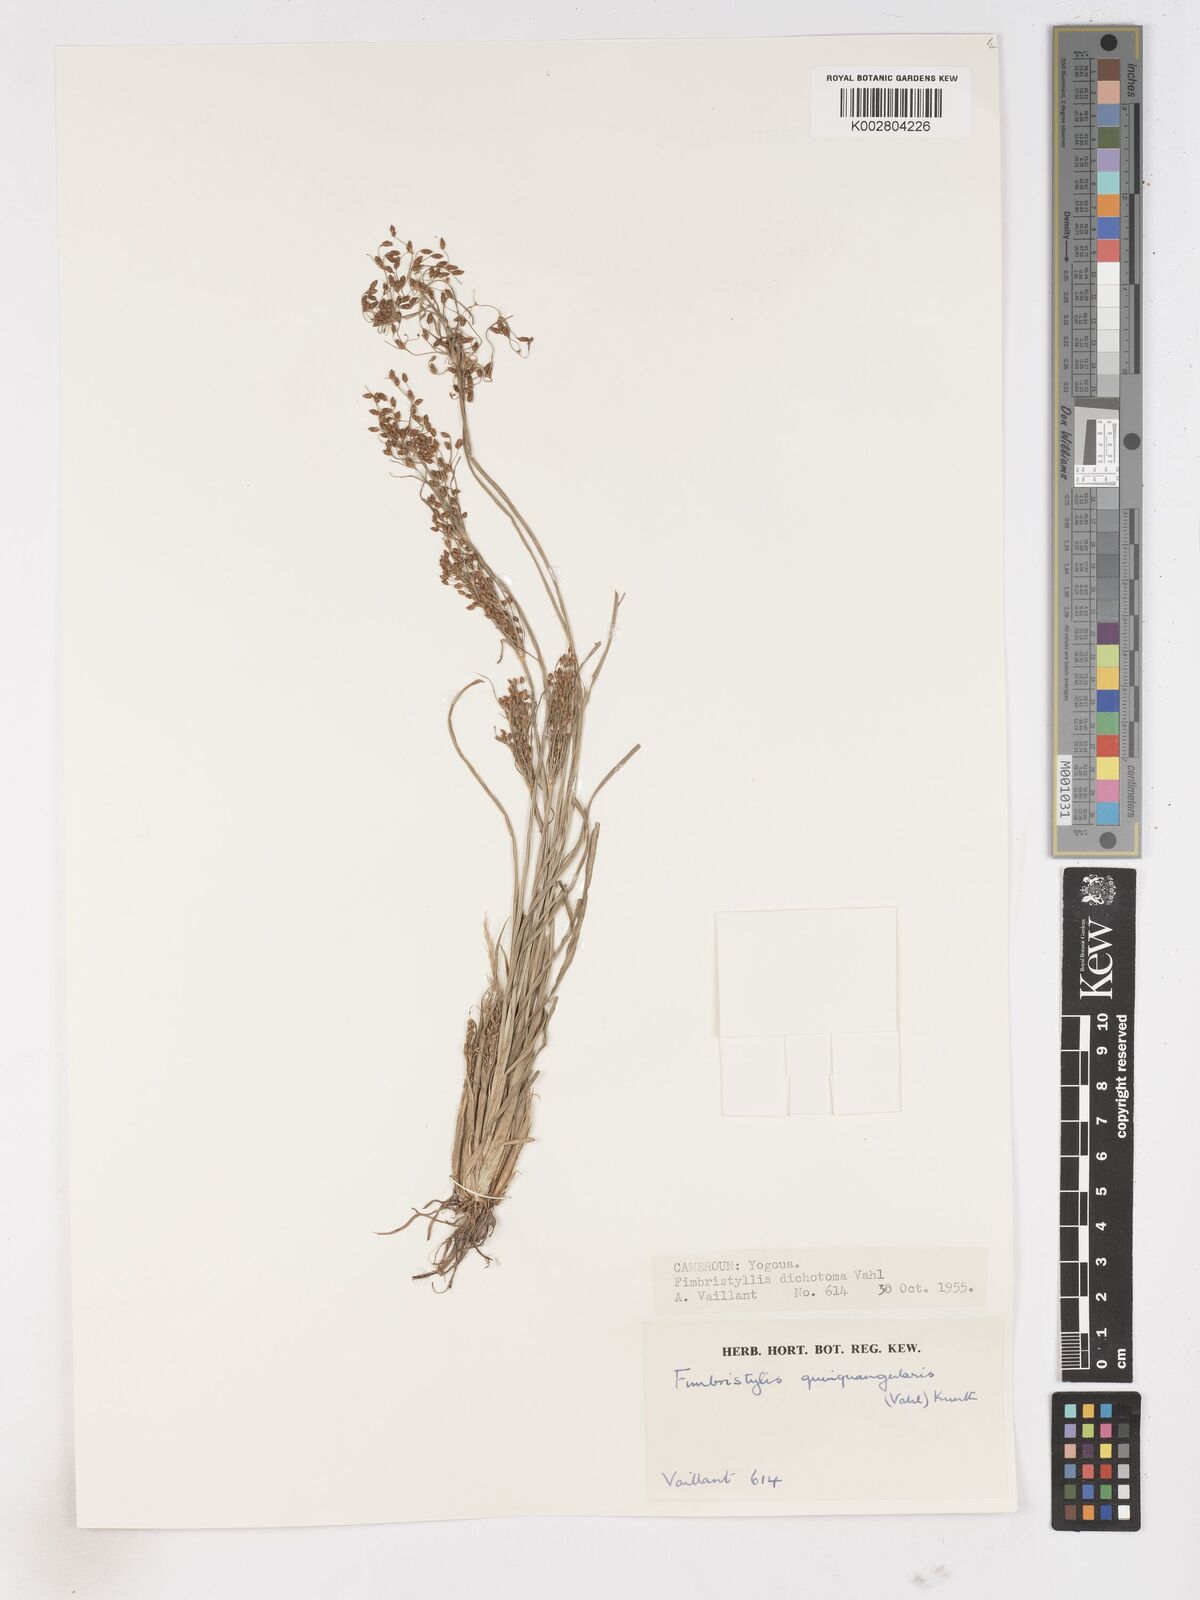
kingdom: Plantae
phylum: Tracheophyta
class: Liliopsida
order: Poales
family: Cyperaceae
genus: Fimbristylis
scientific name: Fimbristylis quinquangularis
